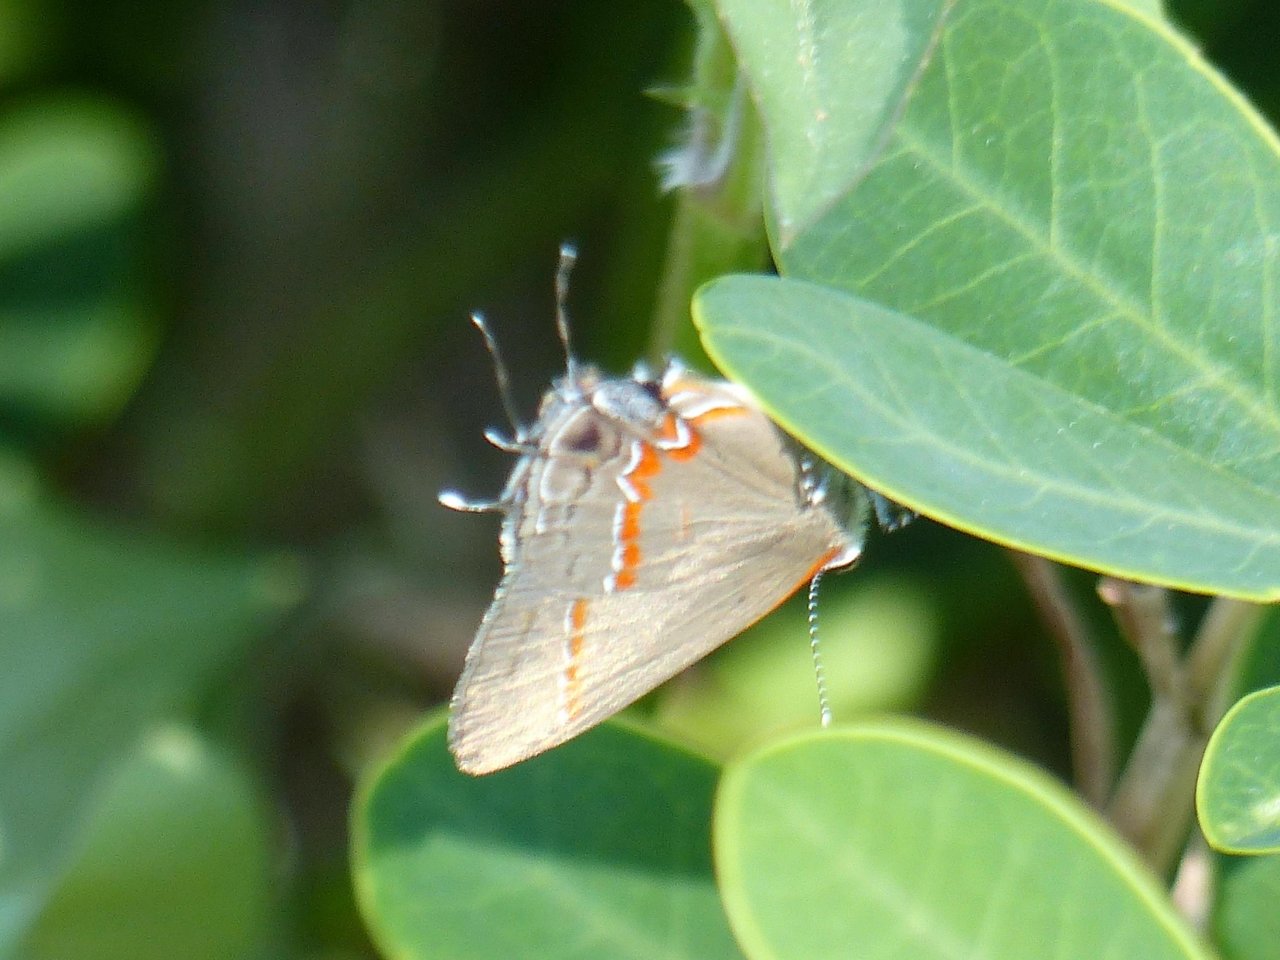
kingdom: Animalia
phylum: Arthropoda
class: Insecta
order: Lepidoptera
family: Lycaenidae
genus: Calycopis
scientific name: Calycopis cecrops
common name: Red-banded Hairstreak
